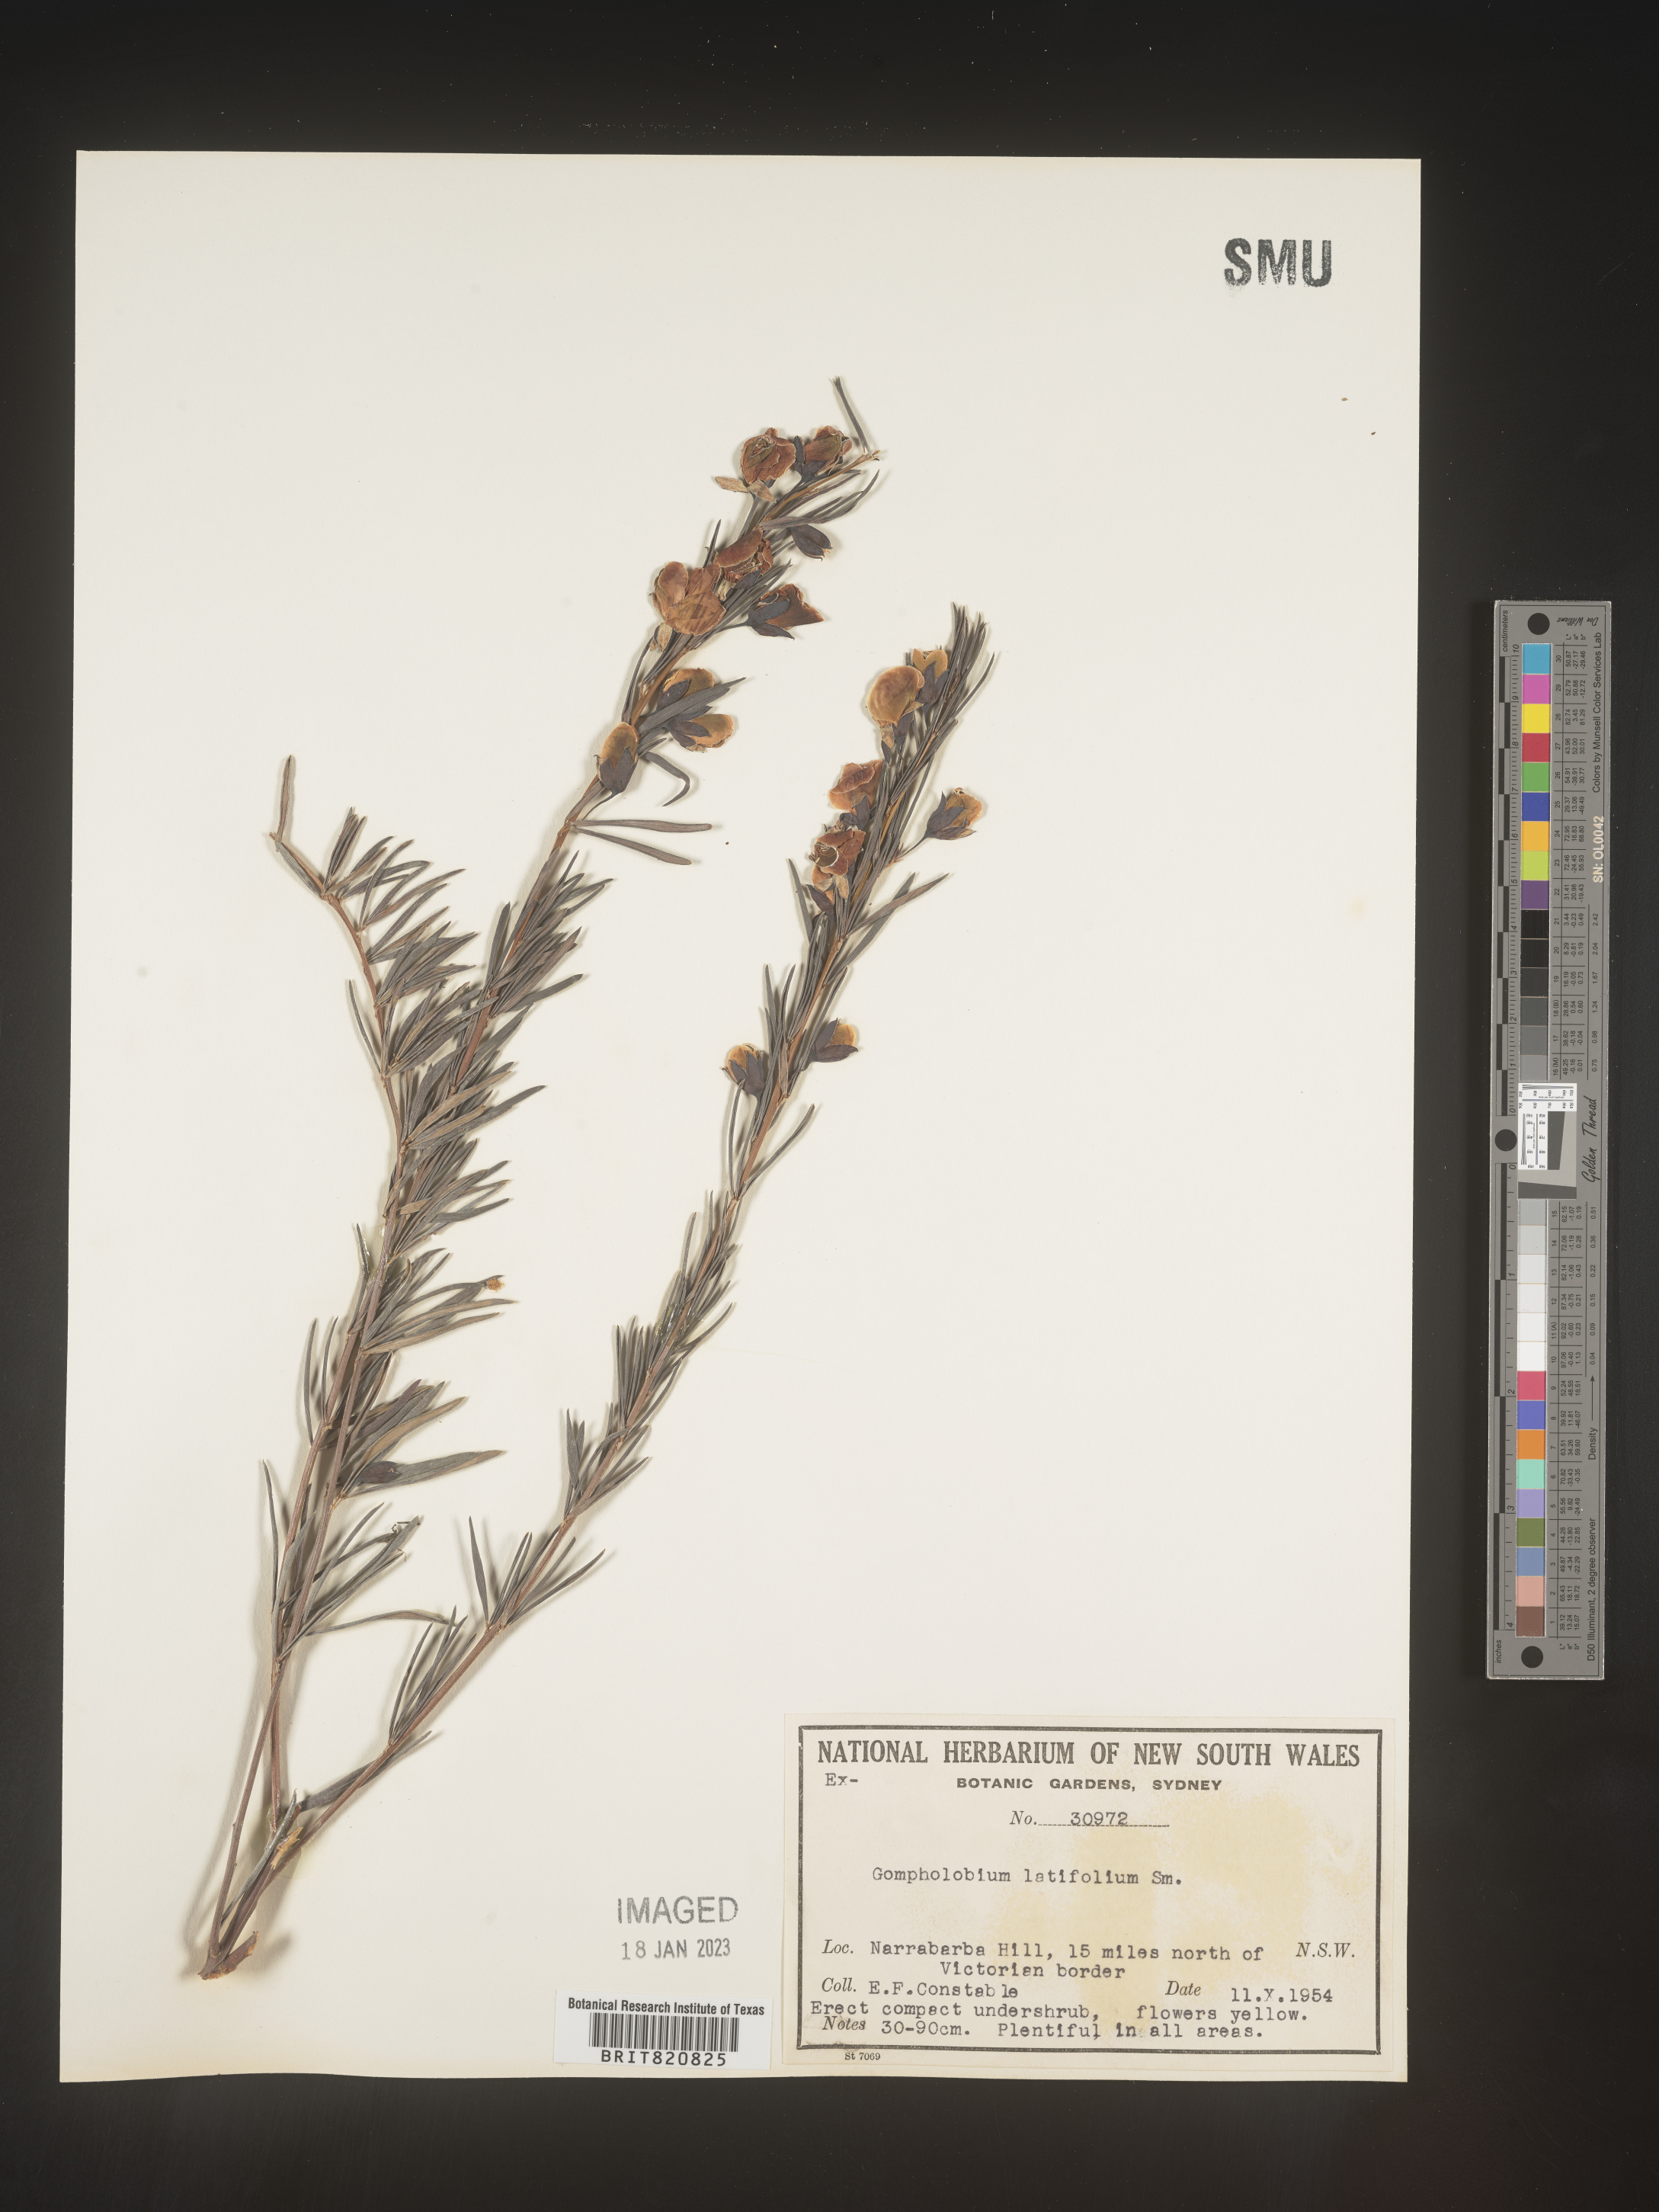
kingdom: Plantae
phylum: Tracheophyta
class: Magnoliopsida
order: Fabales
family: Fabaceae
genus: Gompholobium
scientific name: Gompholobium
